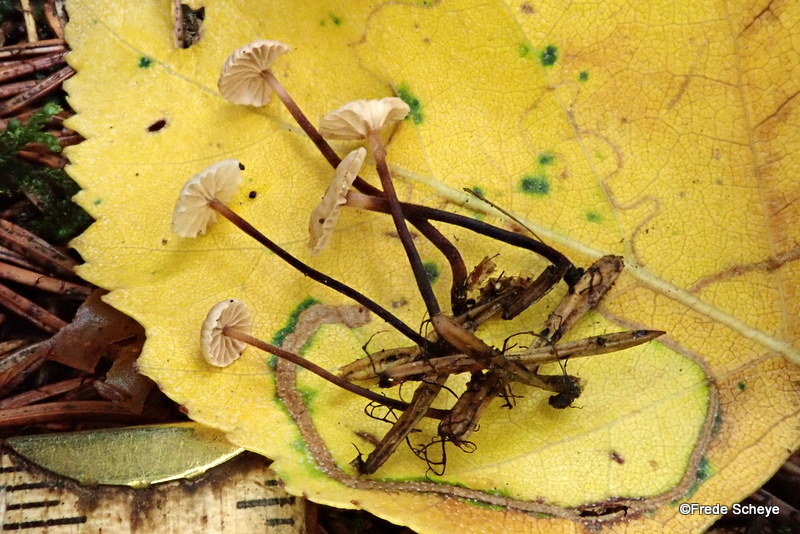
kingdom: Fungi
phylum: Basidiomycota
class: Agaricomycetes
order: Agaricales
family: Omphalotaceae
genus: Paragymnopus
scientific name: Paragymnopus perforans
